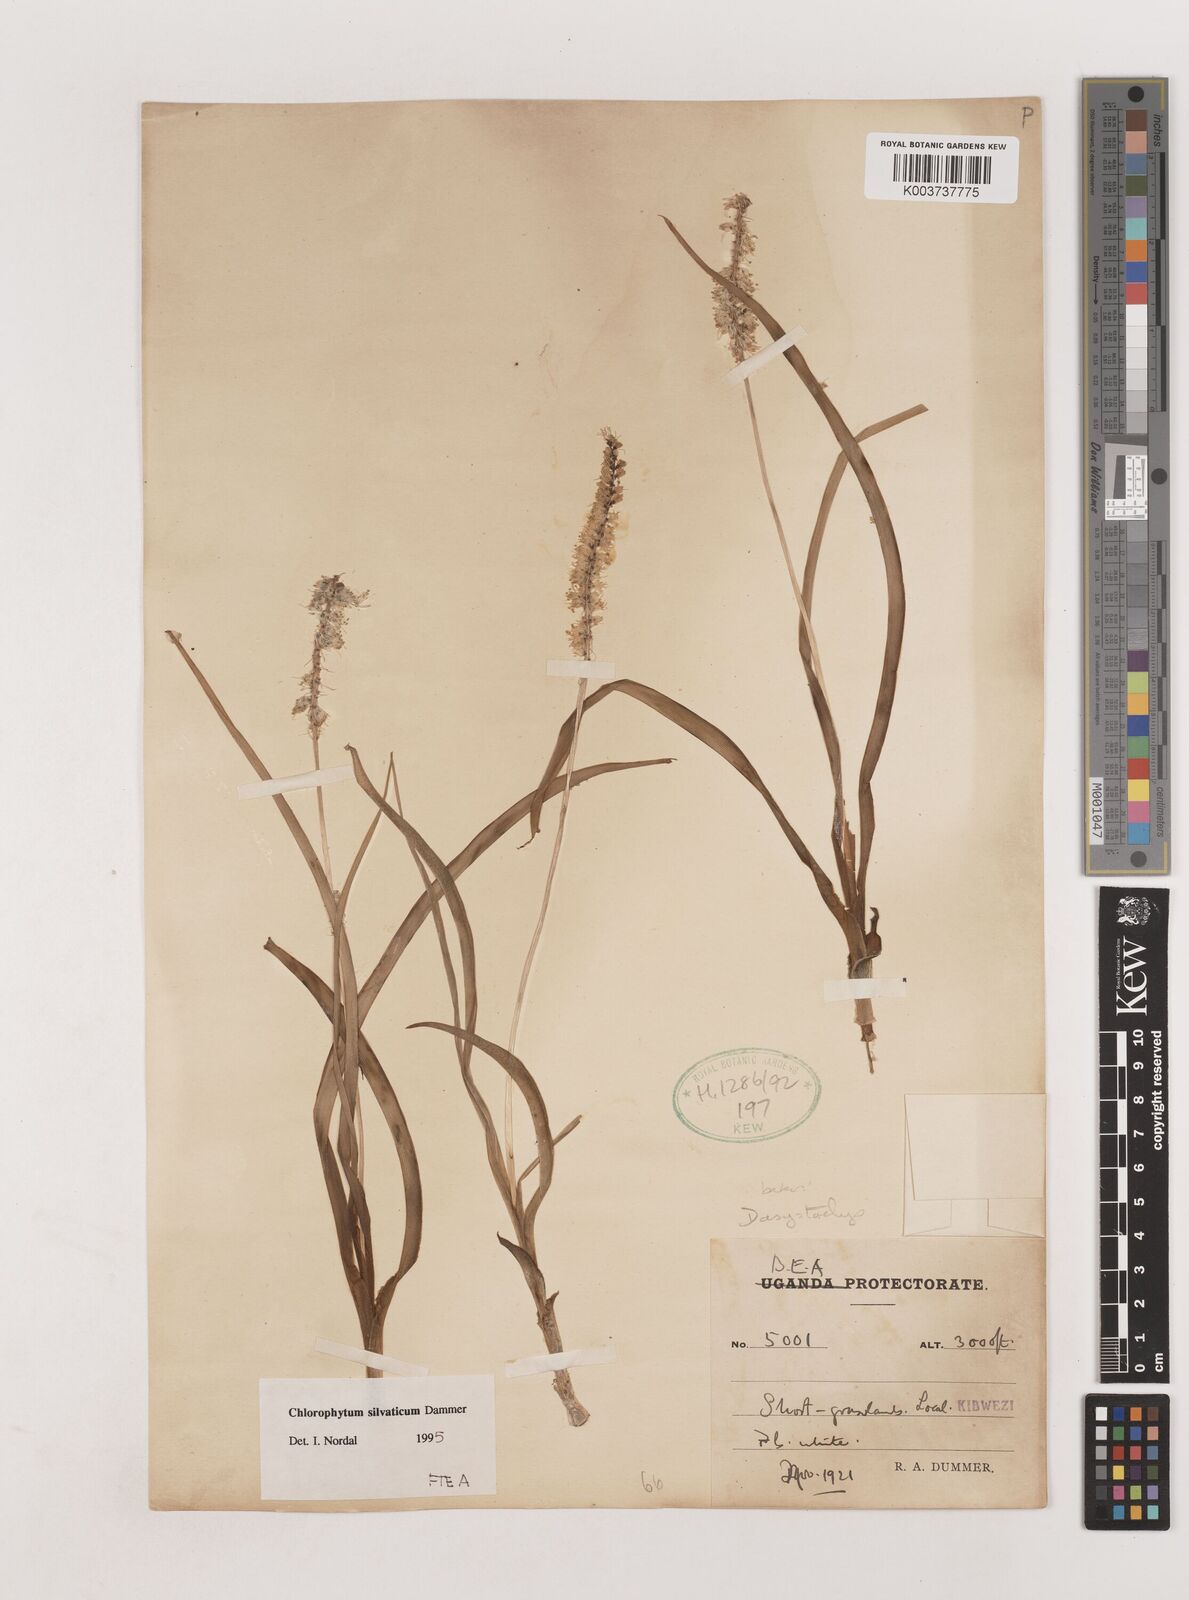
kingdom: Plantae
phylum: Tracheophyta
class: Liliopsida
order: Asparagales
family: Asparagaceae
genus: Chlorophytum
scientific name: Chlorophytum africanum
